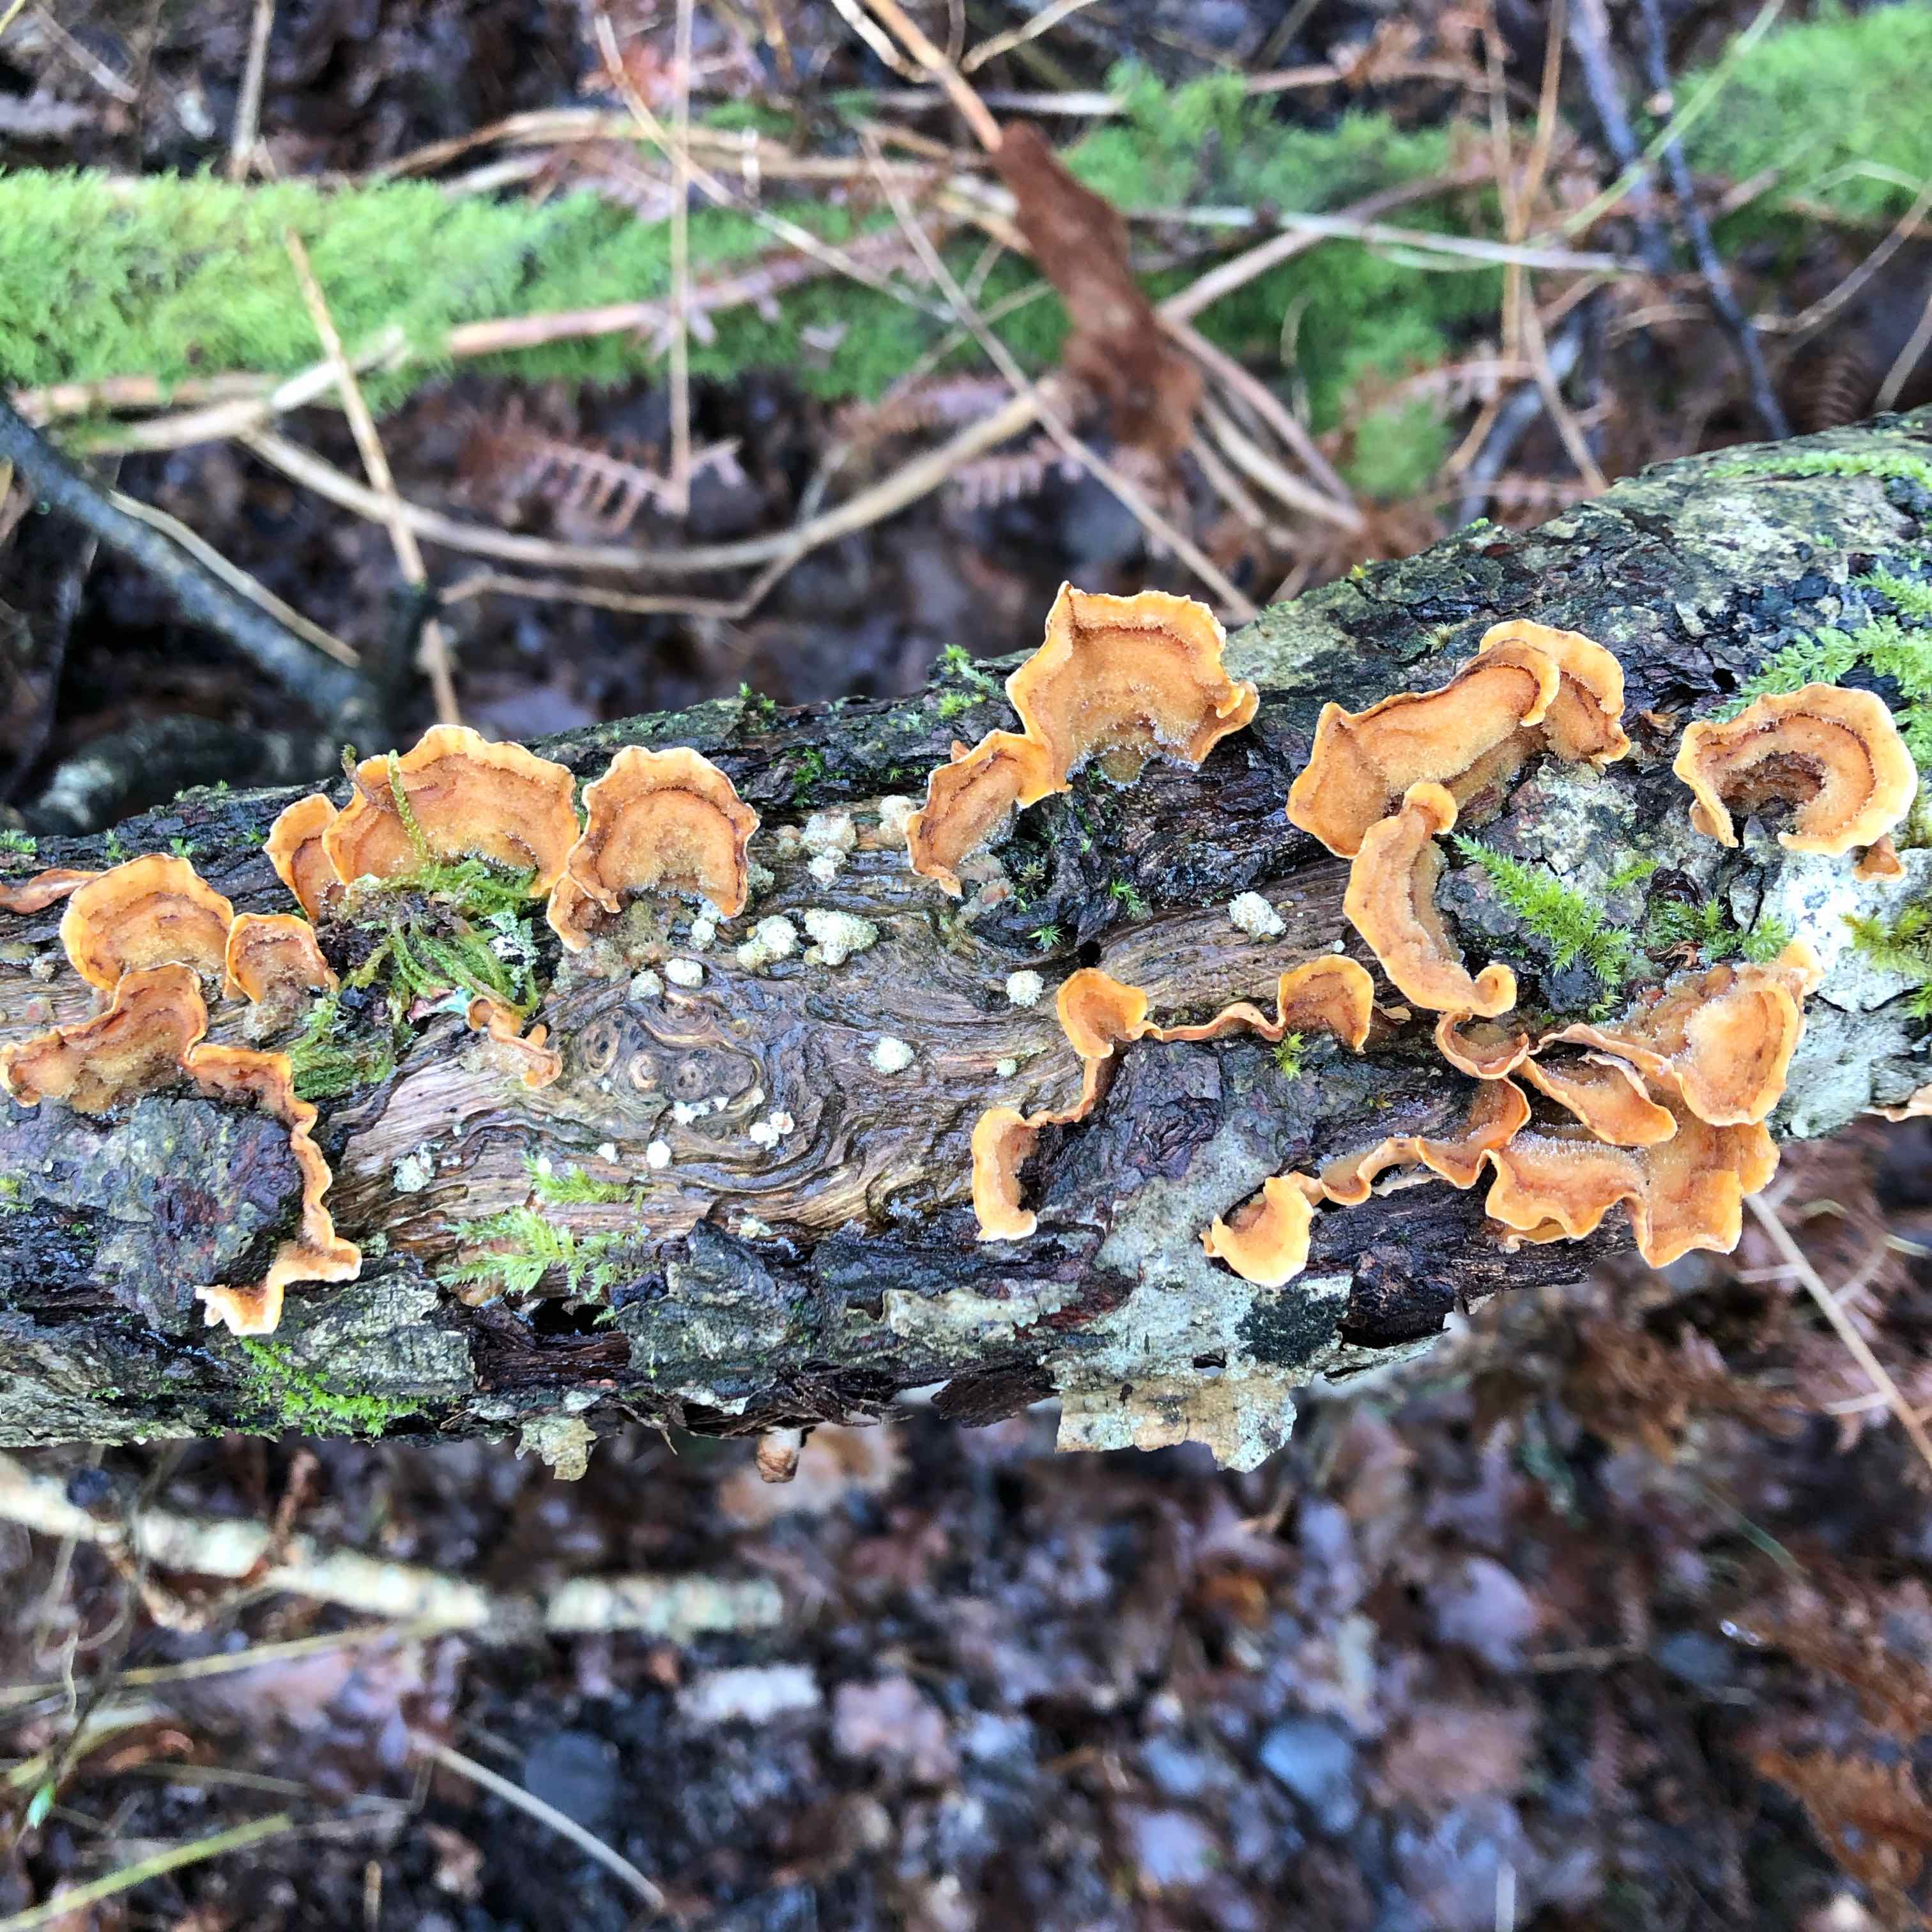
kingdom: Fungi
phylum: Basidiomycota
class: Agaricomycetes
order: Russulales
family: Stereaceae
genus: Stereum
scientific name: Stereum hirsutum
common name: håret lædersvamp
